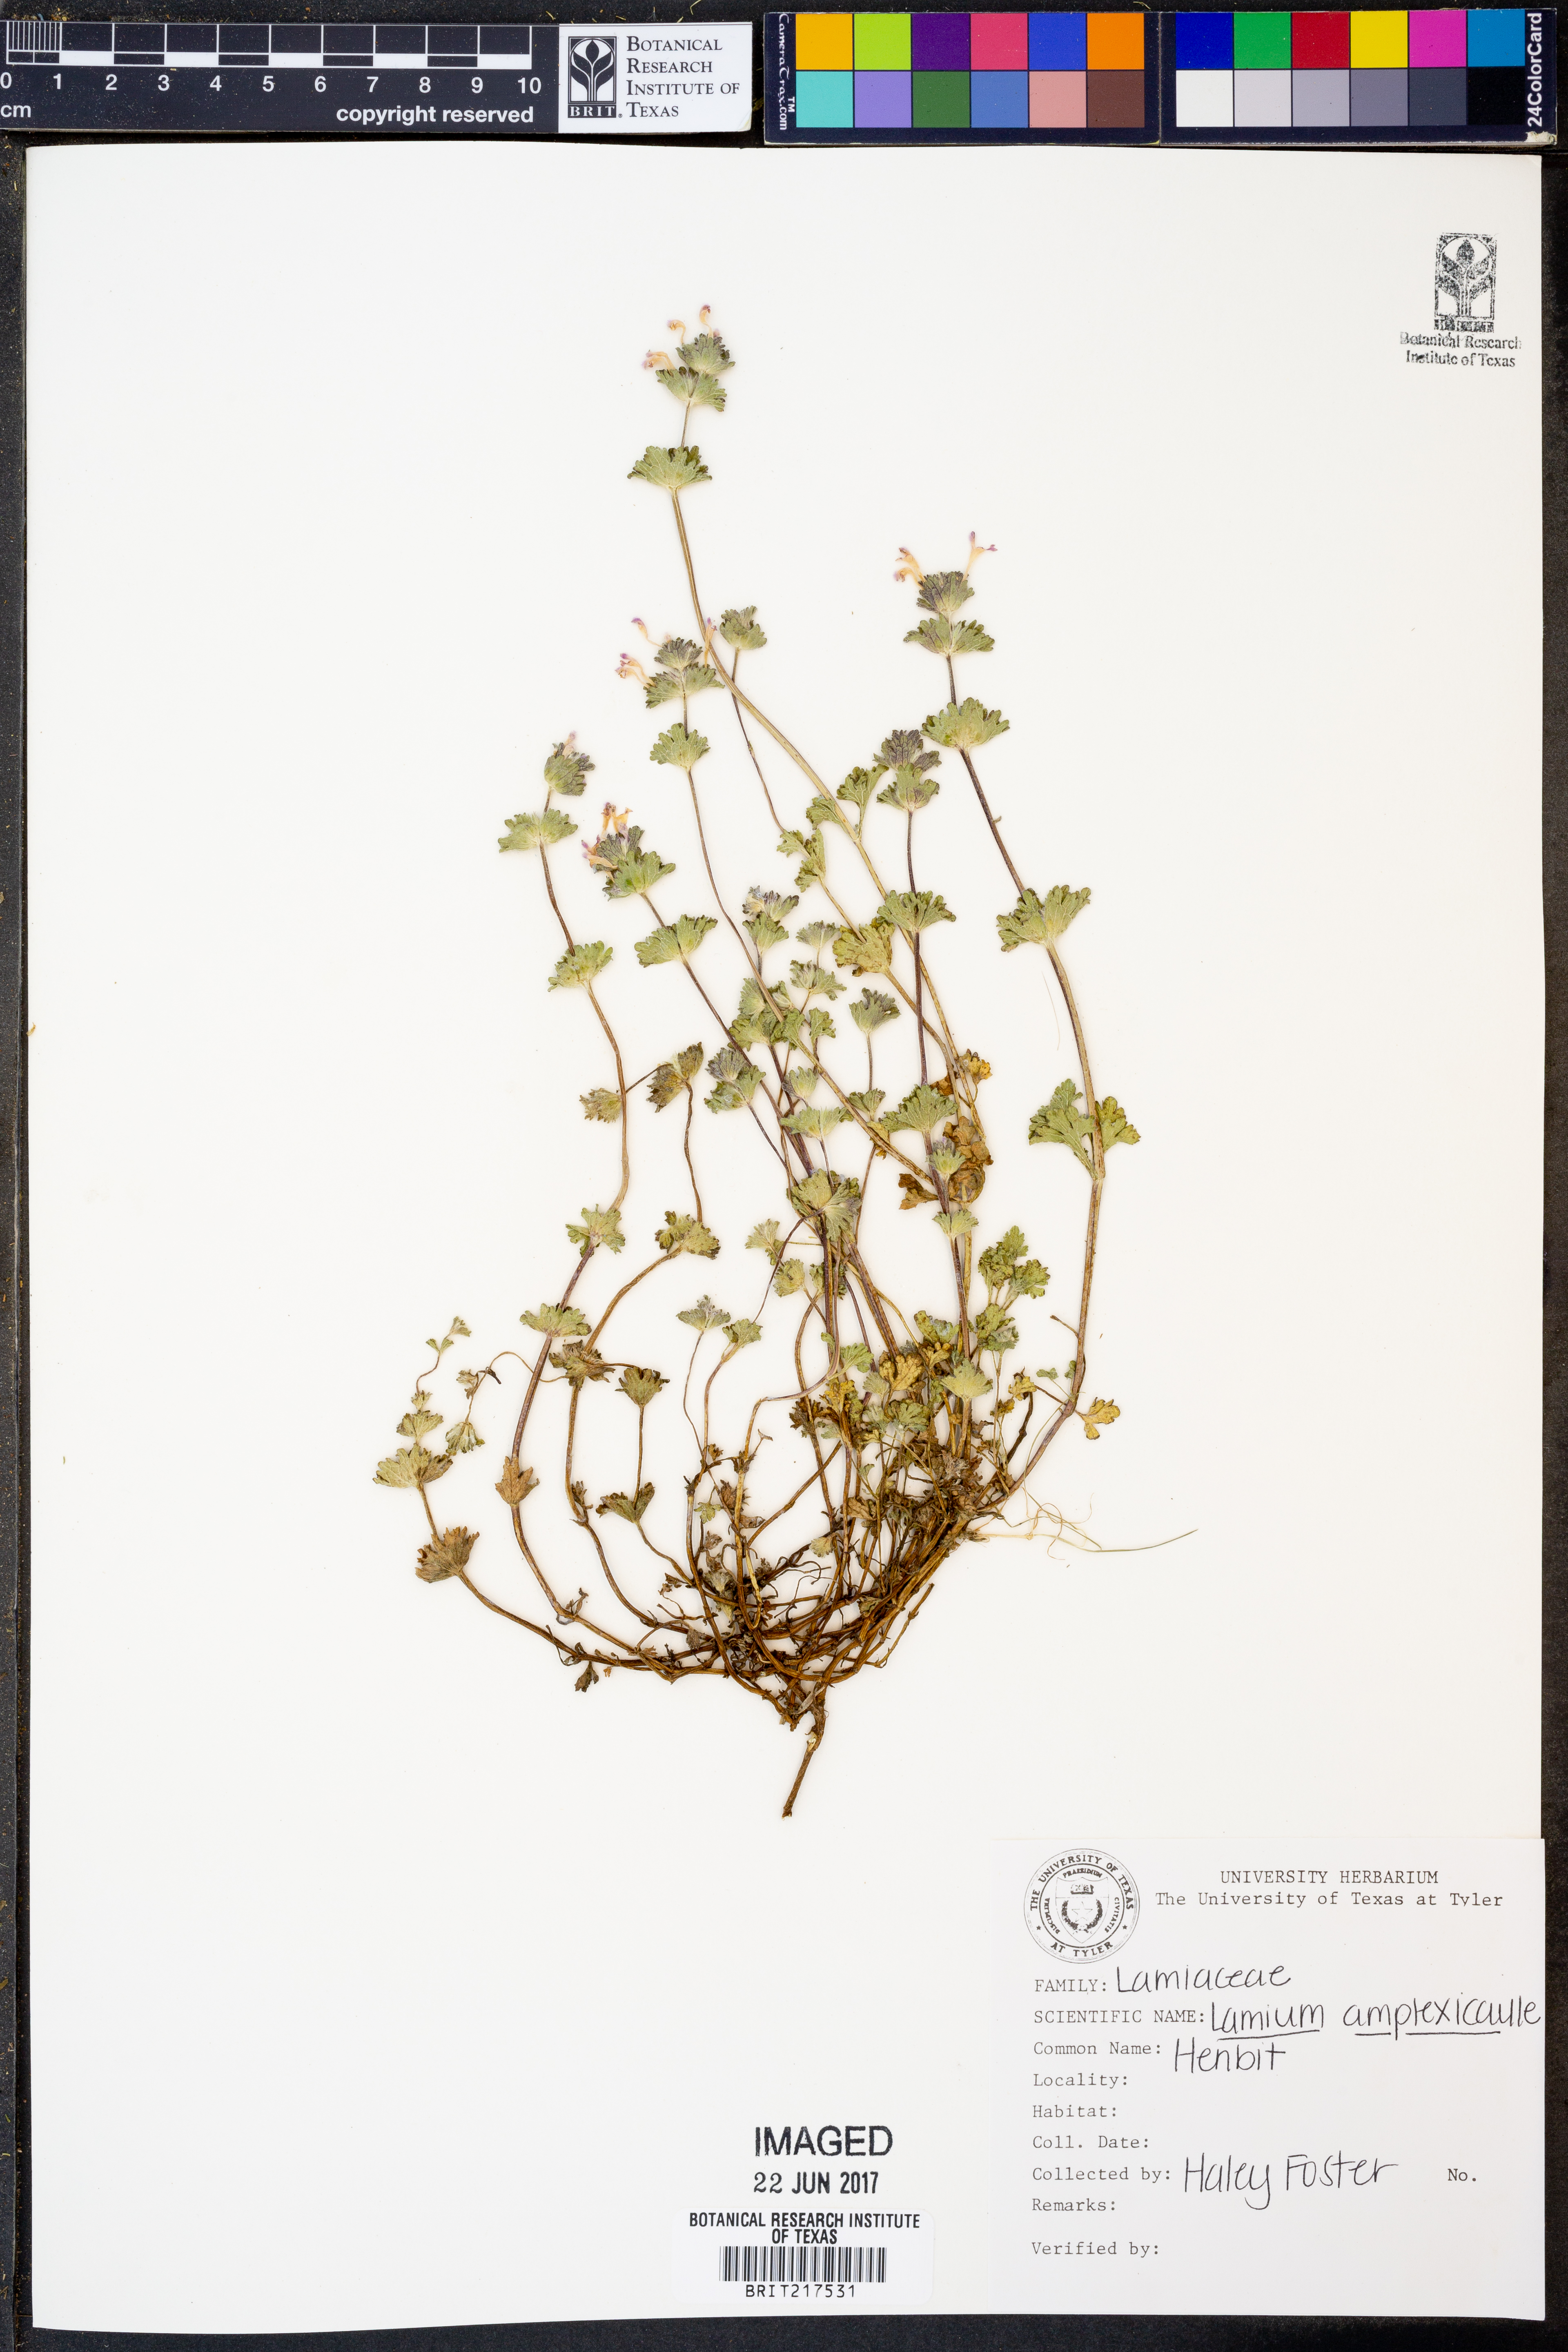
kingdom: Plantae
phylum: Tracheophyta
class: Magnoliopsida
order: Lamiales
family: Lamiaceae
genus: Lamium
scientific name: Lamium amplexicaule
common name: Henbit dead-nettle
